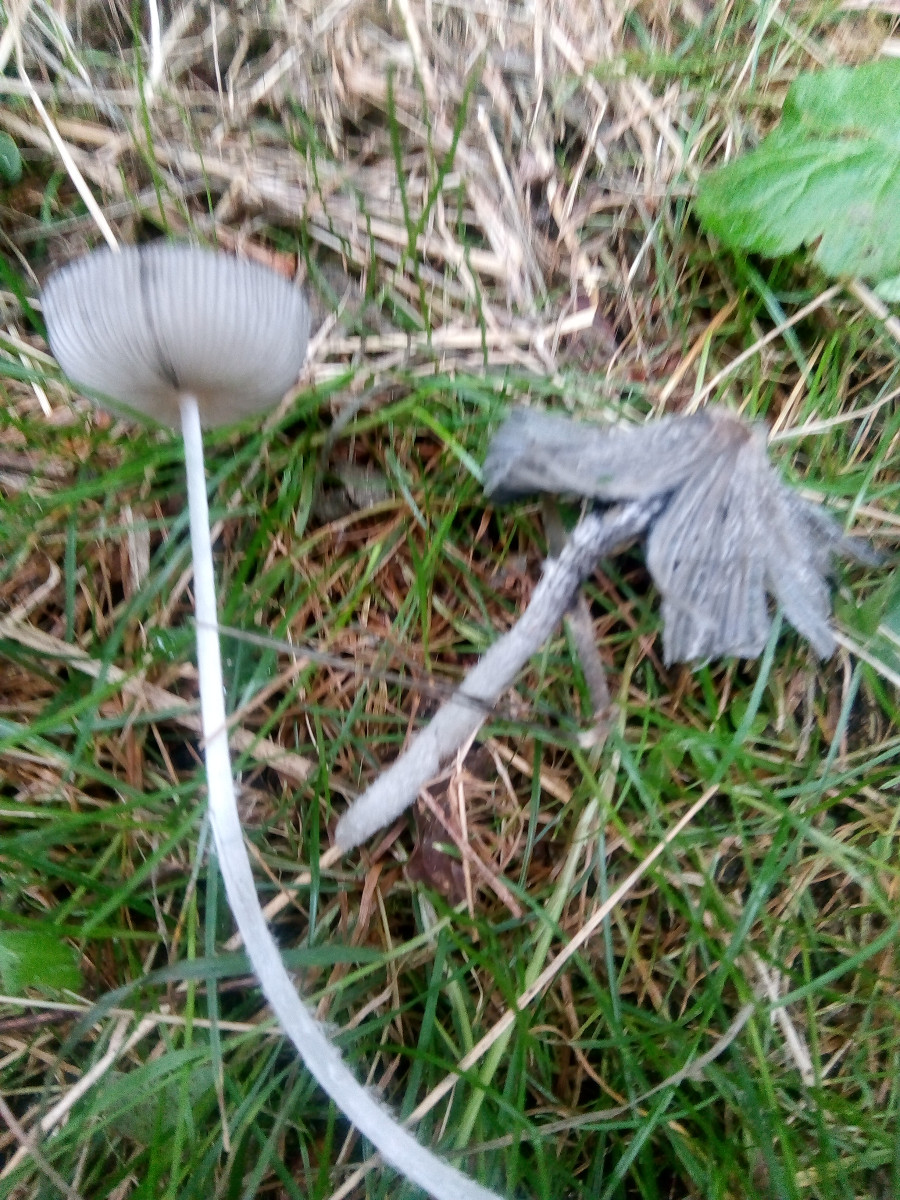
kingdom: Fungi
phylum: Basidiomycota
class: Agaricomycetes
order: Agaricales
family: Psathyrellaceae
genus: Coprinopsis
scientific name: Coprinopsis lagopus
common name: dunstokket blækhat
